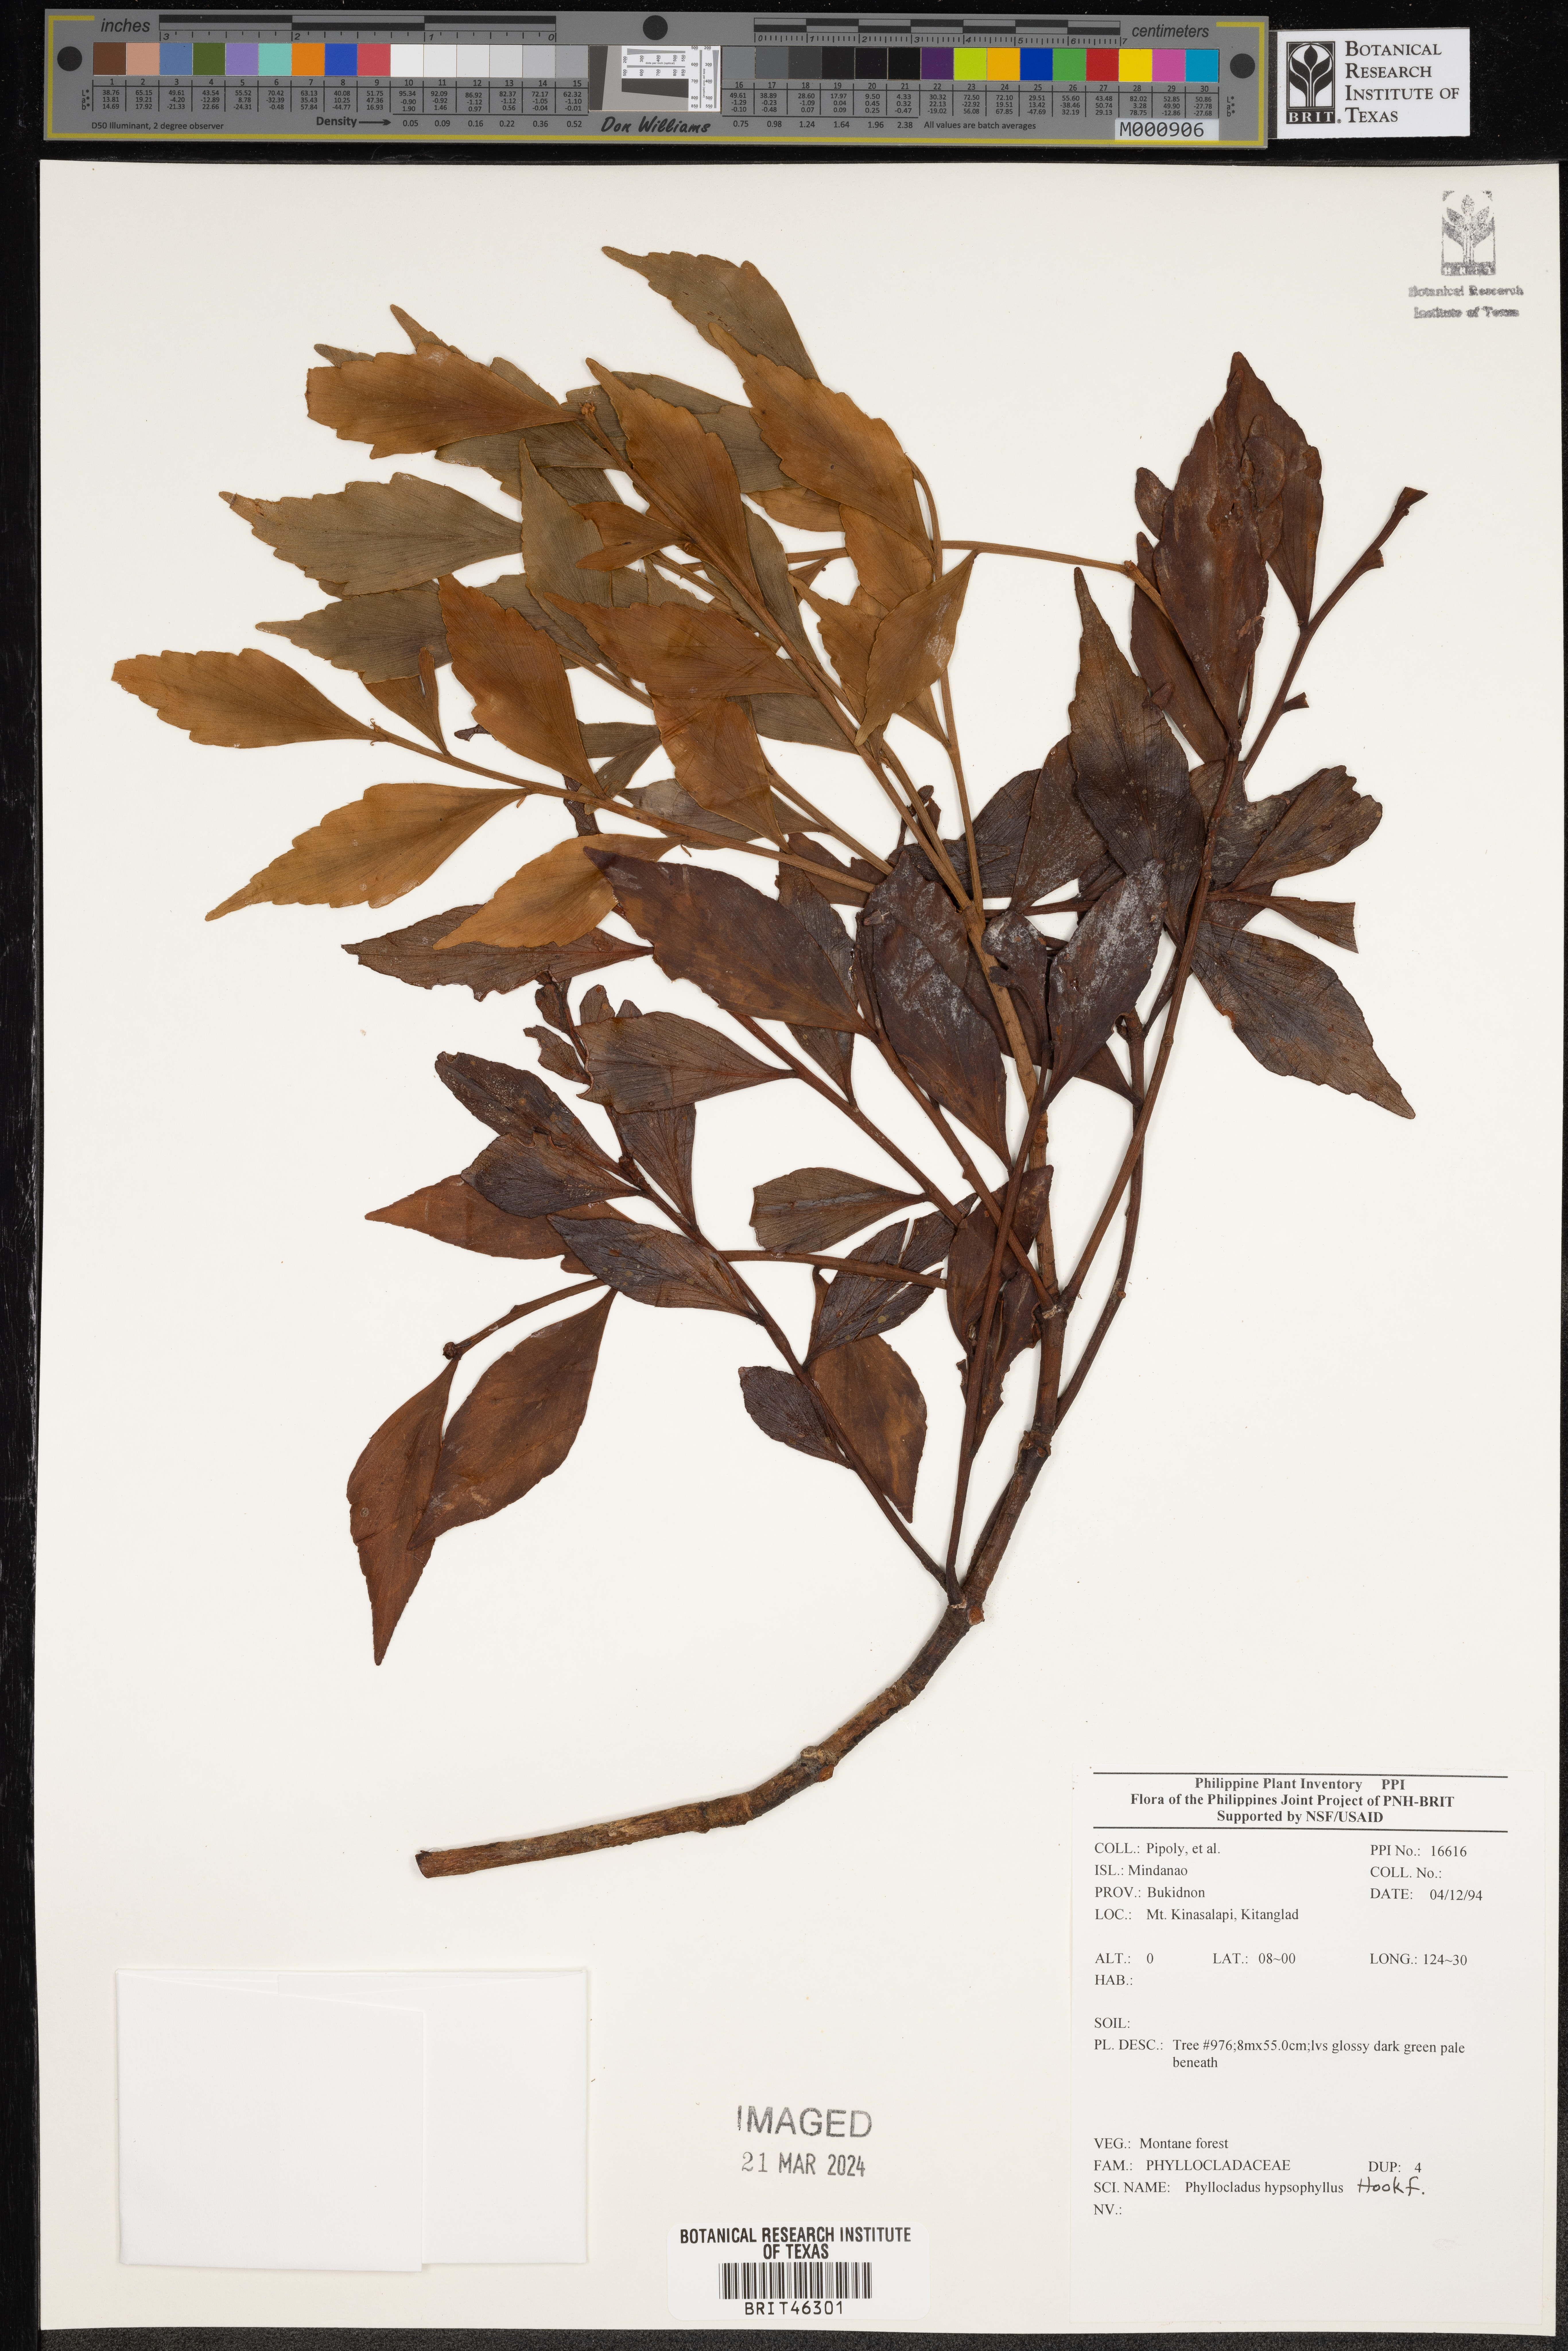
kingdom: Plantae
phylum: Tracheophyta
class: Pinopsida
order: Pinales
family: Phyllocladaceae
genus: Phyllocladus
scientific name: Phyllocladus hypophyllus
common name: Celery pine
